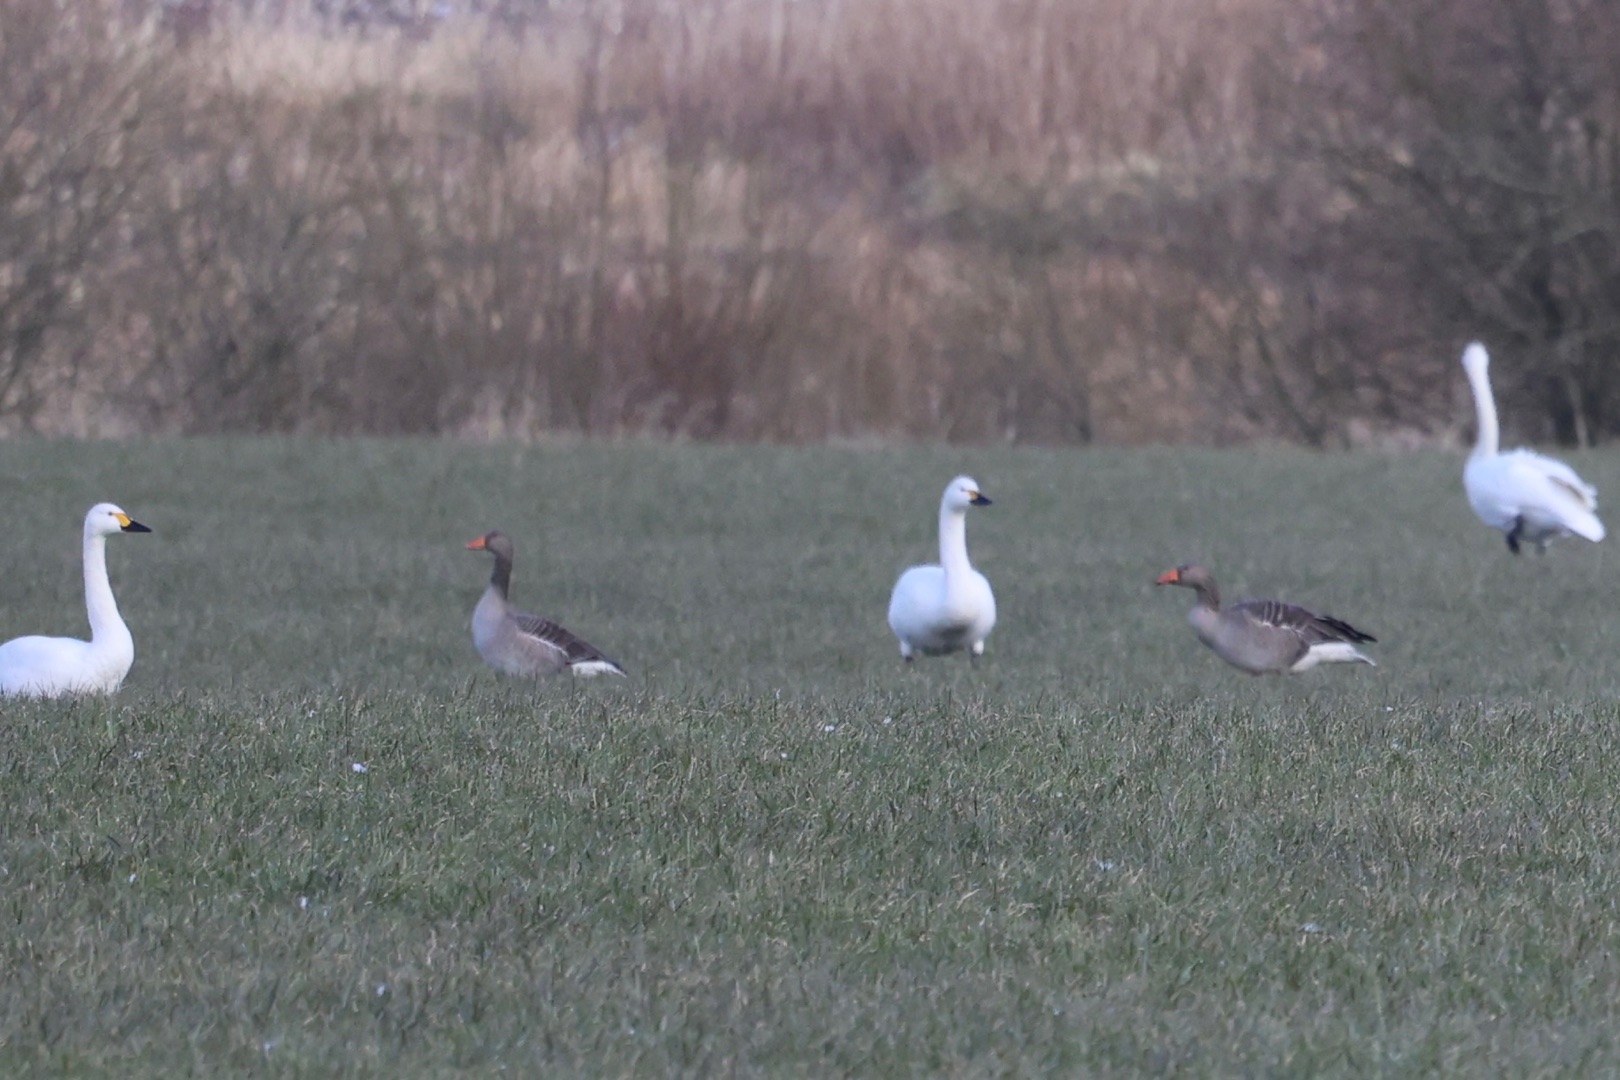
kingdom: Animalia
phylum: Chordata
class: Aves
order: Anseriformes
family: Anatidae
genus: Anser
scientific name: Anser anser
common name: Grågås
